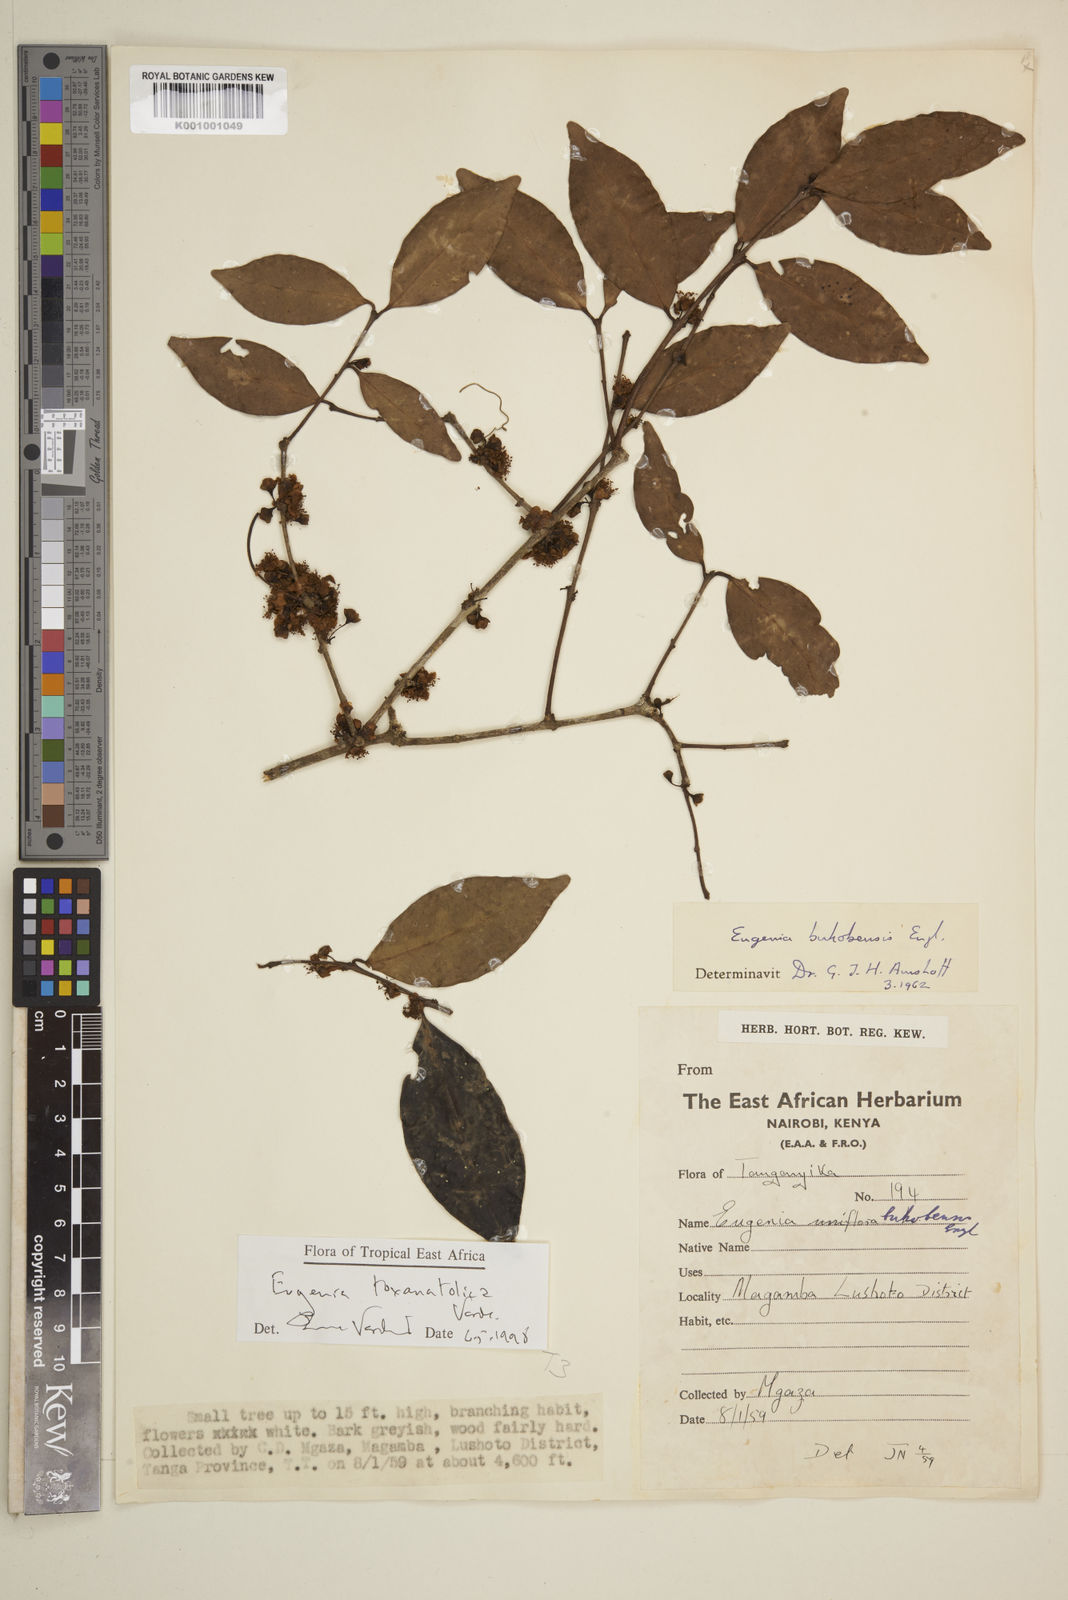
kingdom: Plantae
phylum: Tracheophyta
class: Magnoliopsida
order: Myrtales
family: Myrtaceae
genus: Eugenia
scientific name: Eugenia toxanatolica
